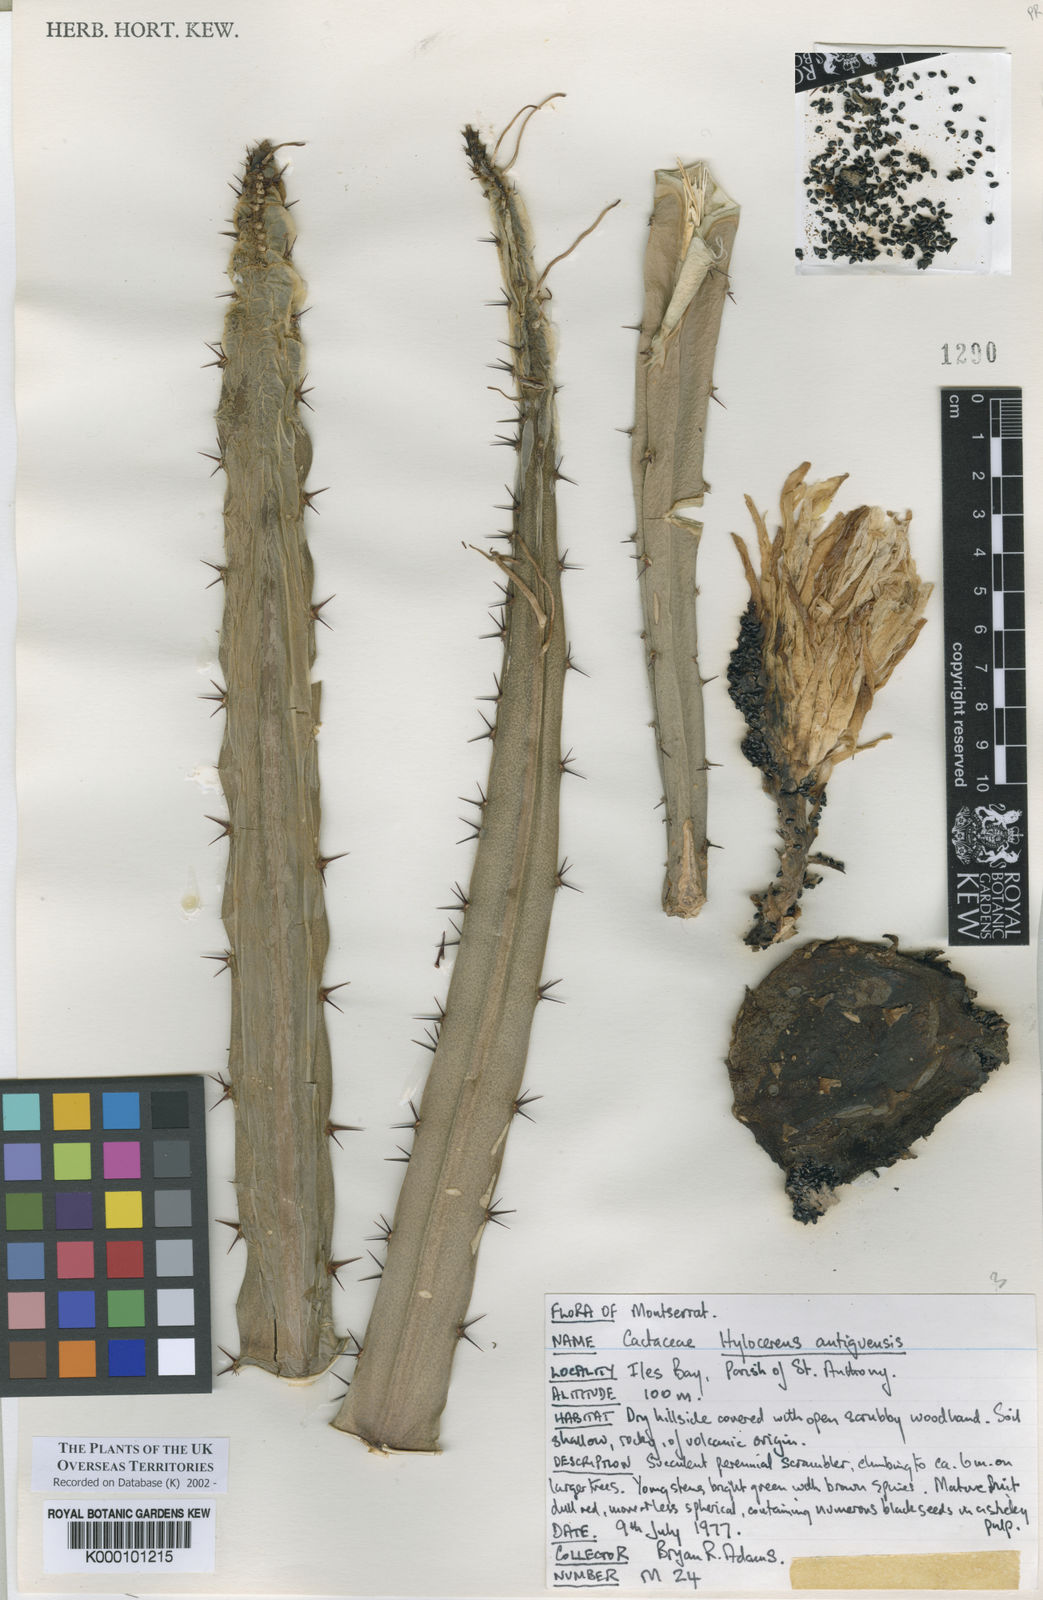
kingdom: Plantae
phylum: Tracheophyta
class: Magnoliopsida
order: Caryophyllales
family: Cactaceae
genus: Selenicereus
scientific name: Selenicereus triangularis
